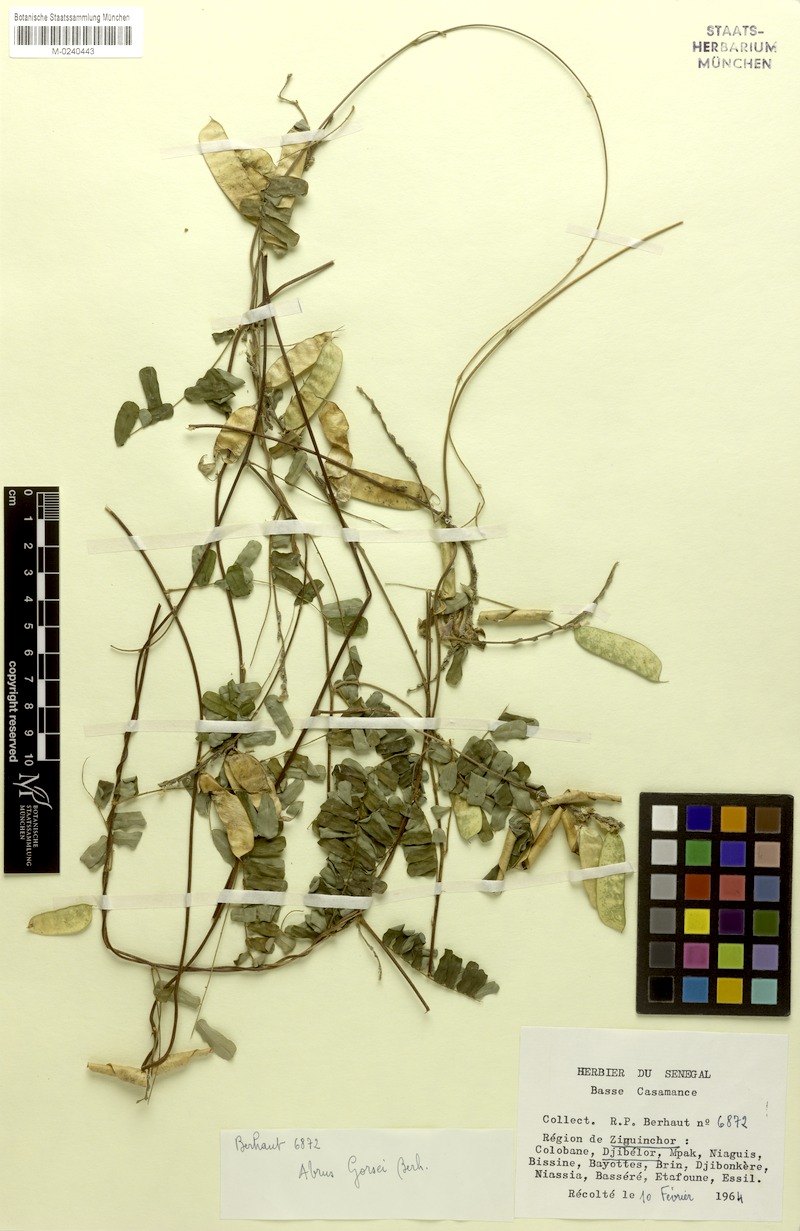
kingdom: Plantae
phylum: Tracheophyta
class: Magnoliopsida
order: Fabales
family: Fabaceae
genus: Abrus
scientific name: Abrus melanospermus
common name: Licorice-root
